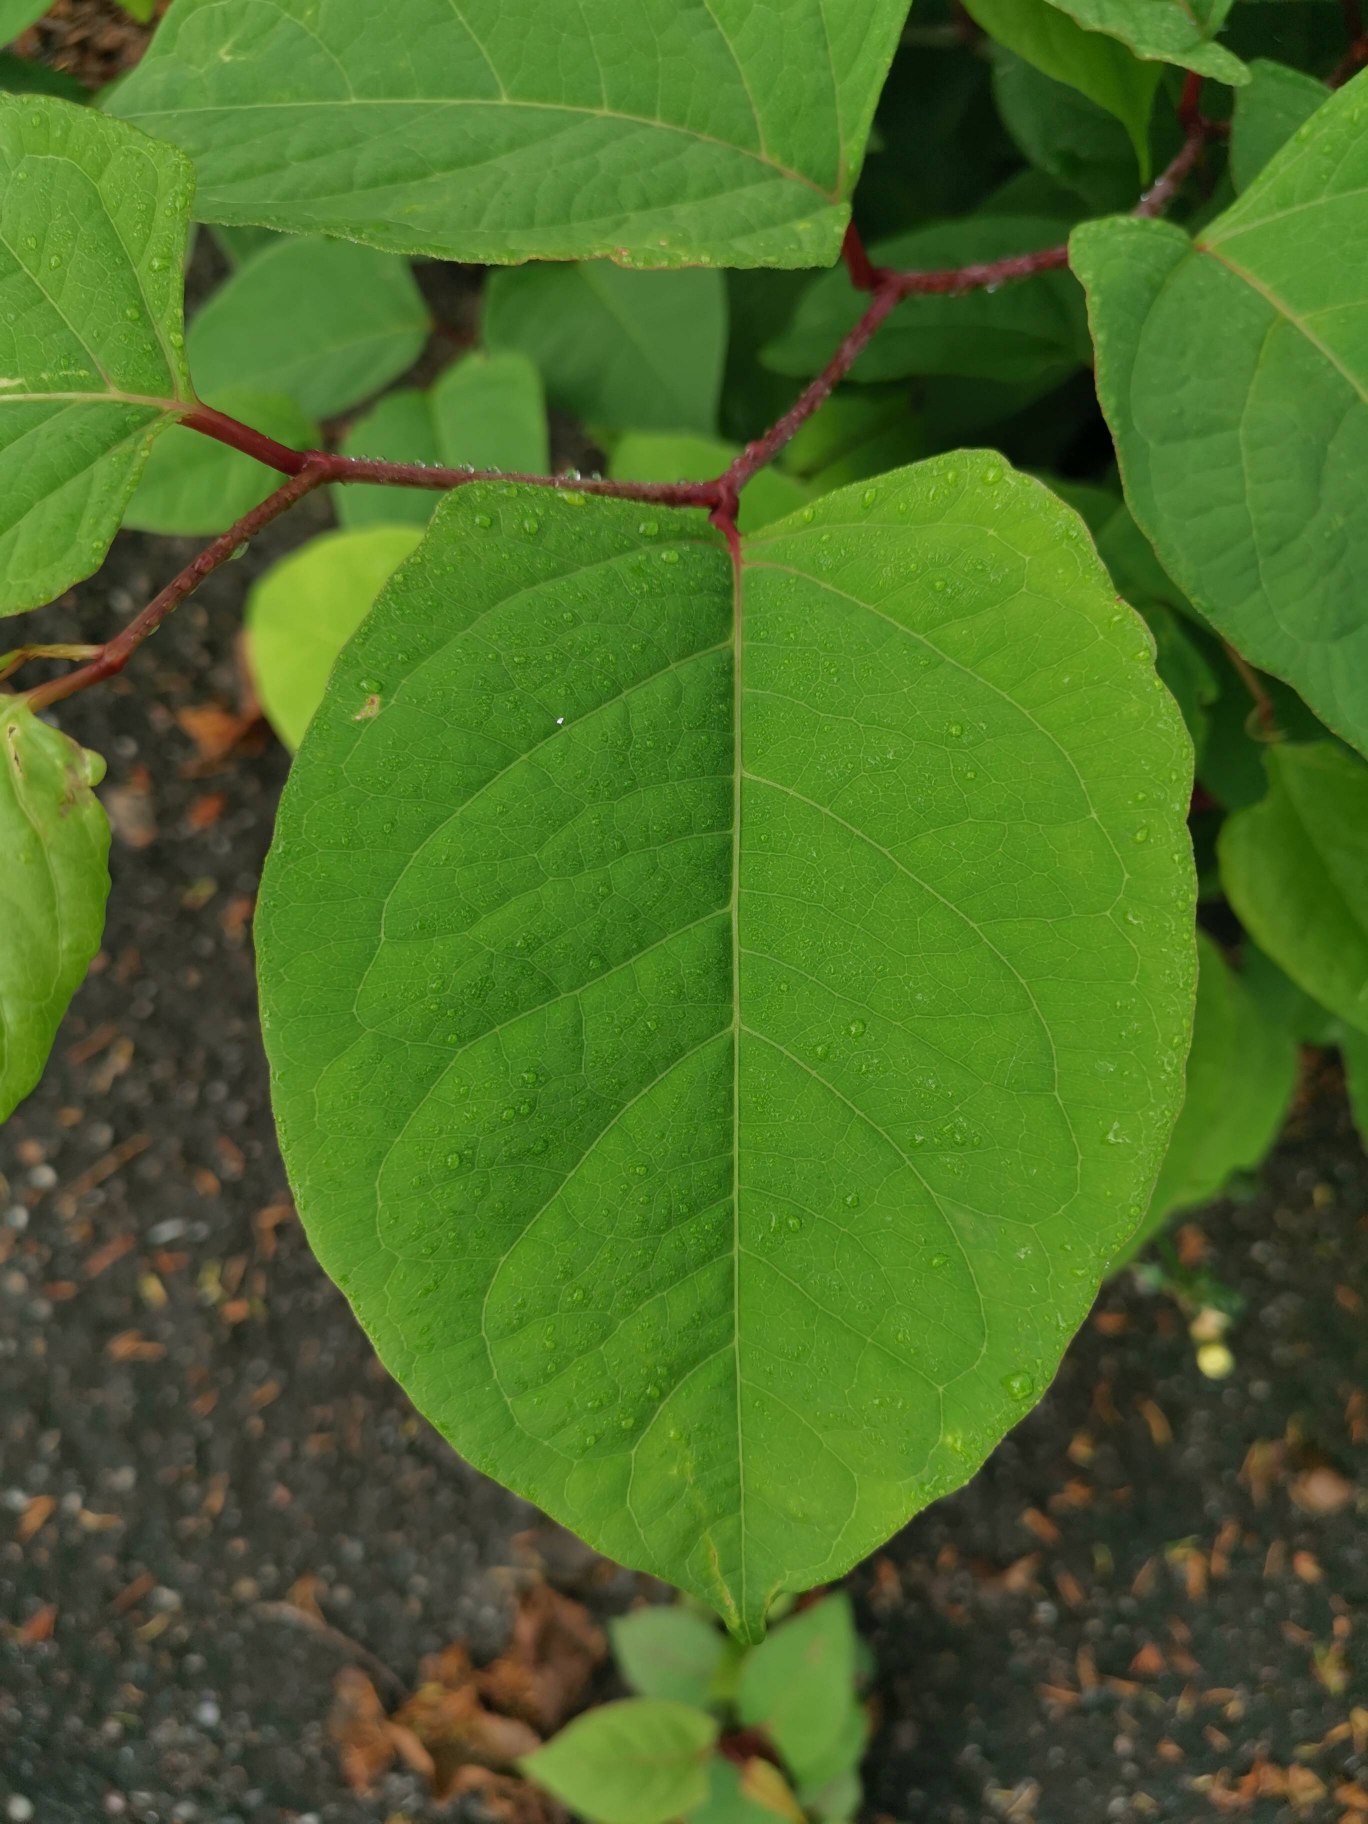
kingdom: Plantae
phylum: Tracheophyta
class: Magnoliopsida
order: Caryophyllales
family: Polygonaceae
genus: Reynoutria
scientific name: Reynoutria japonica
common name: Japan-pileurt
